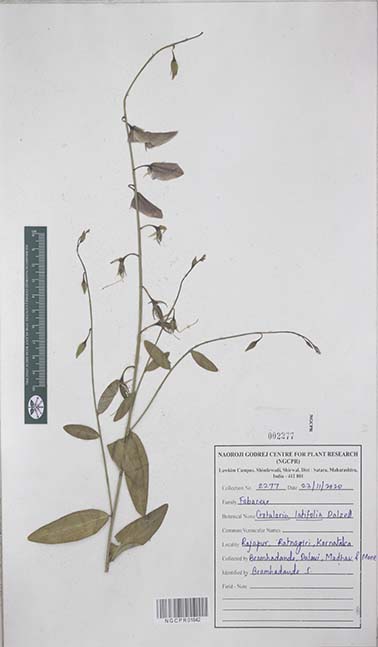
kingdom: Plantae
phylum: Tracheophyta
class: Magnoliopsida
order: Fabales
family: Fabaceae
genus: Crotalaria
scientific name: Crotalaria
